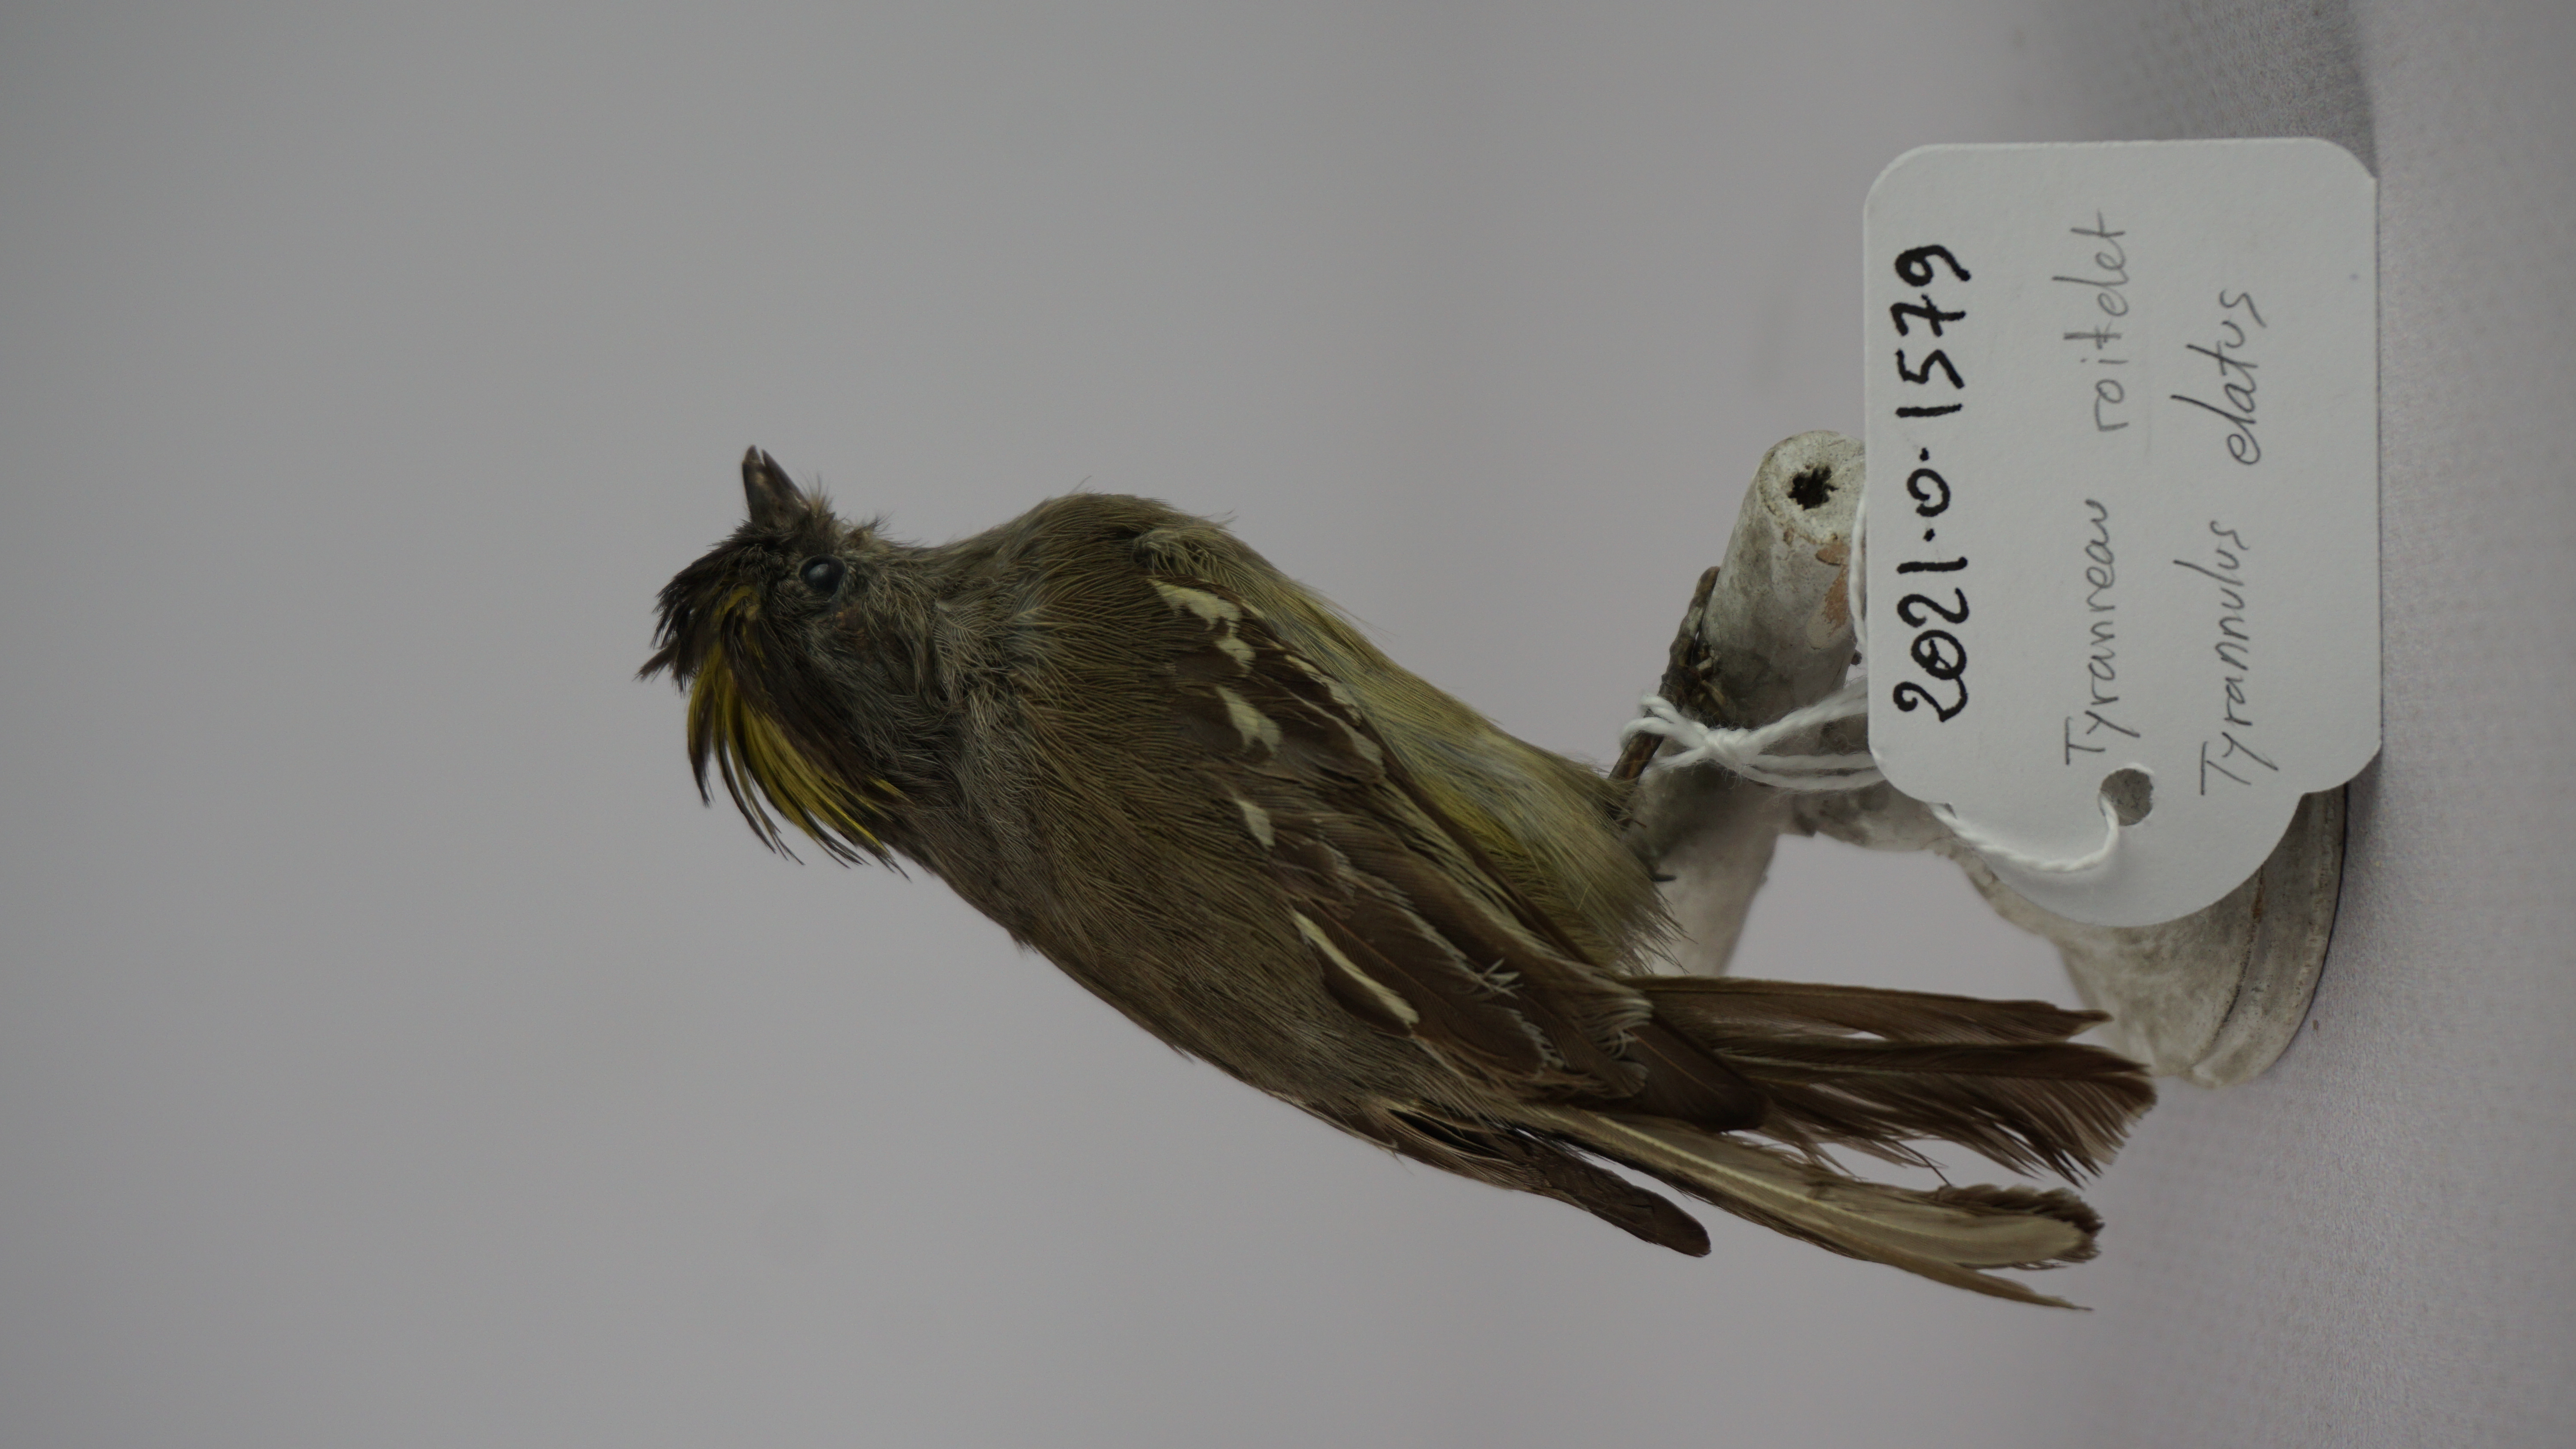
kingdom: Animalia
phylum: Chordata
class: Aves
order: Passeriformes
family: Tyrannidae
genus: Tyrannulus
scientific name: Tyrannulus elatus
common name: Yellow-crowned tyrannulet
